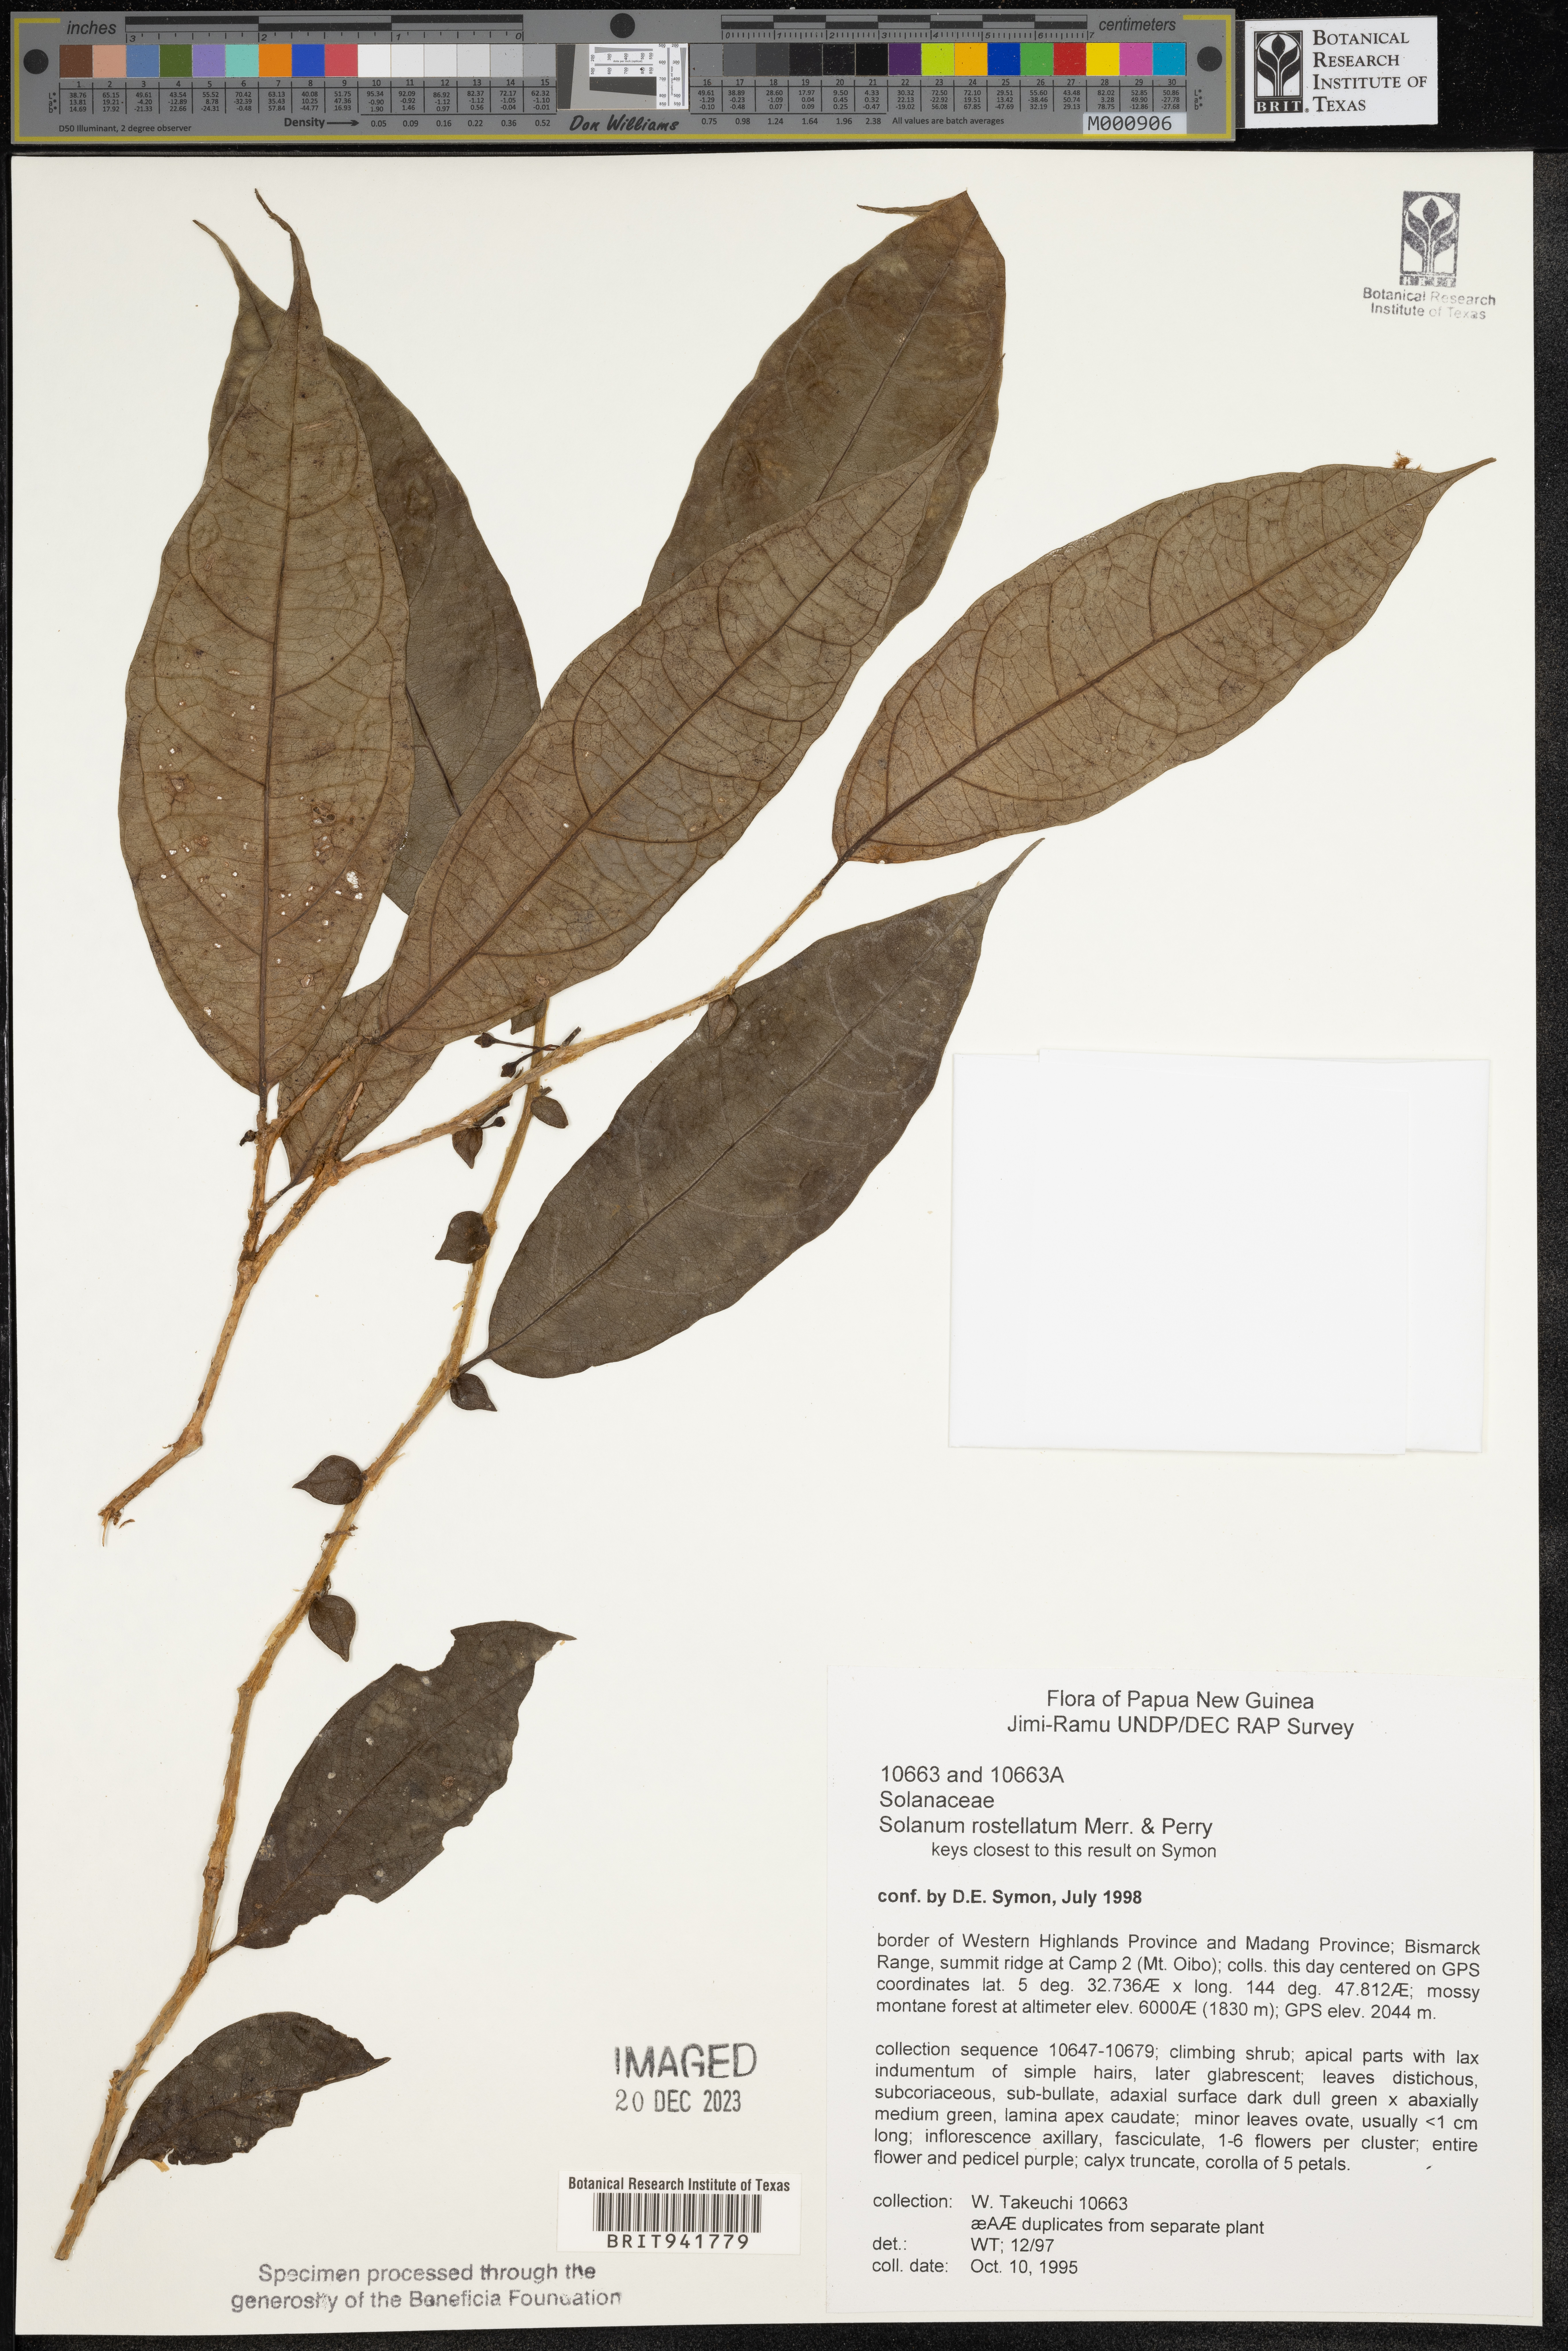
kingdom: Plantae
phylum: Tracheophyta
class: Magnoliopsida
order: Solanales
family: Solanaceae
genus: Solanum
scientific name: Solanum
